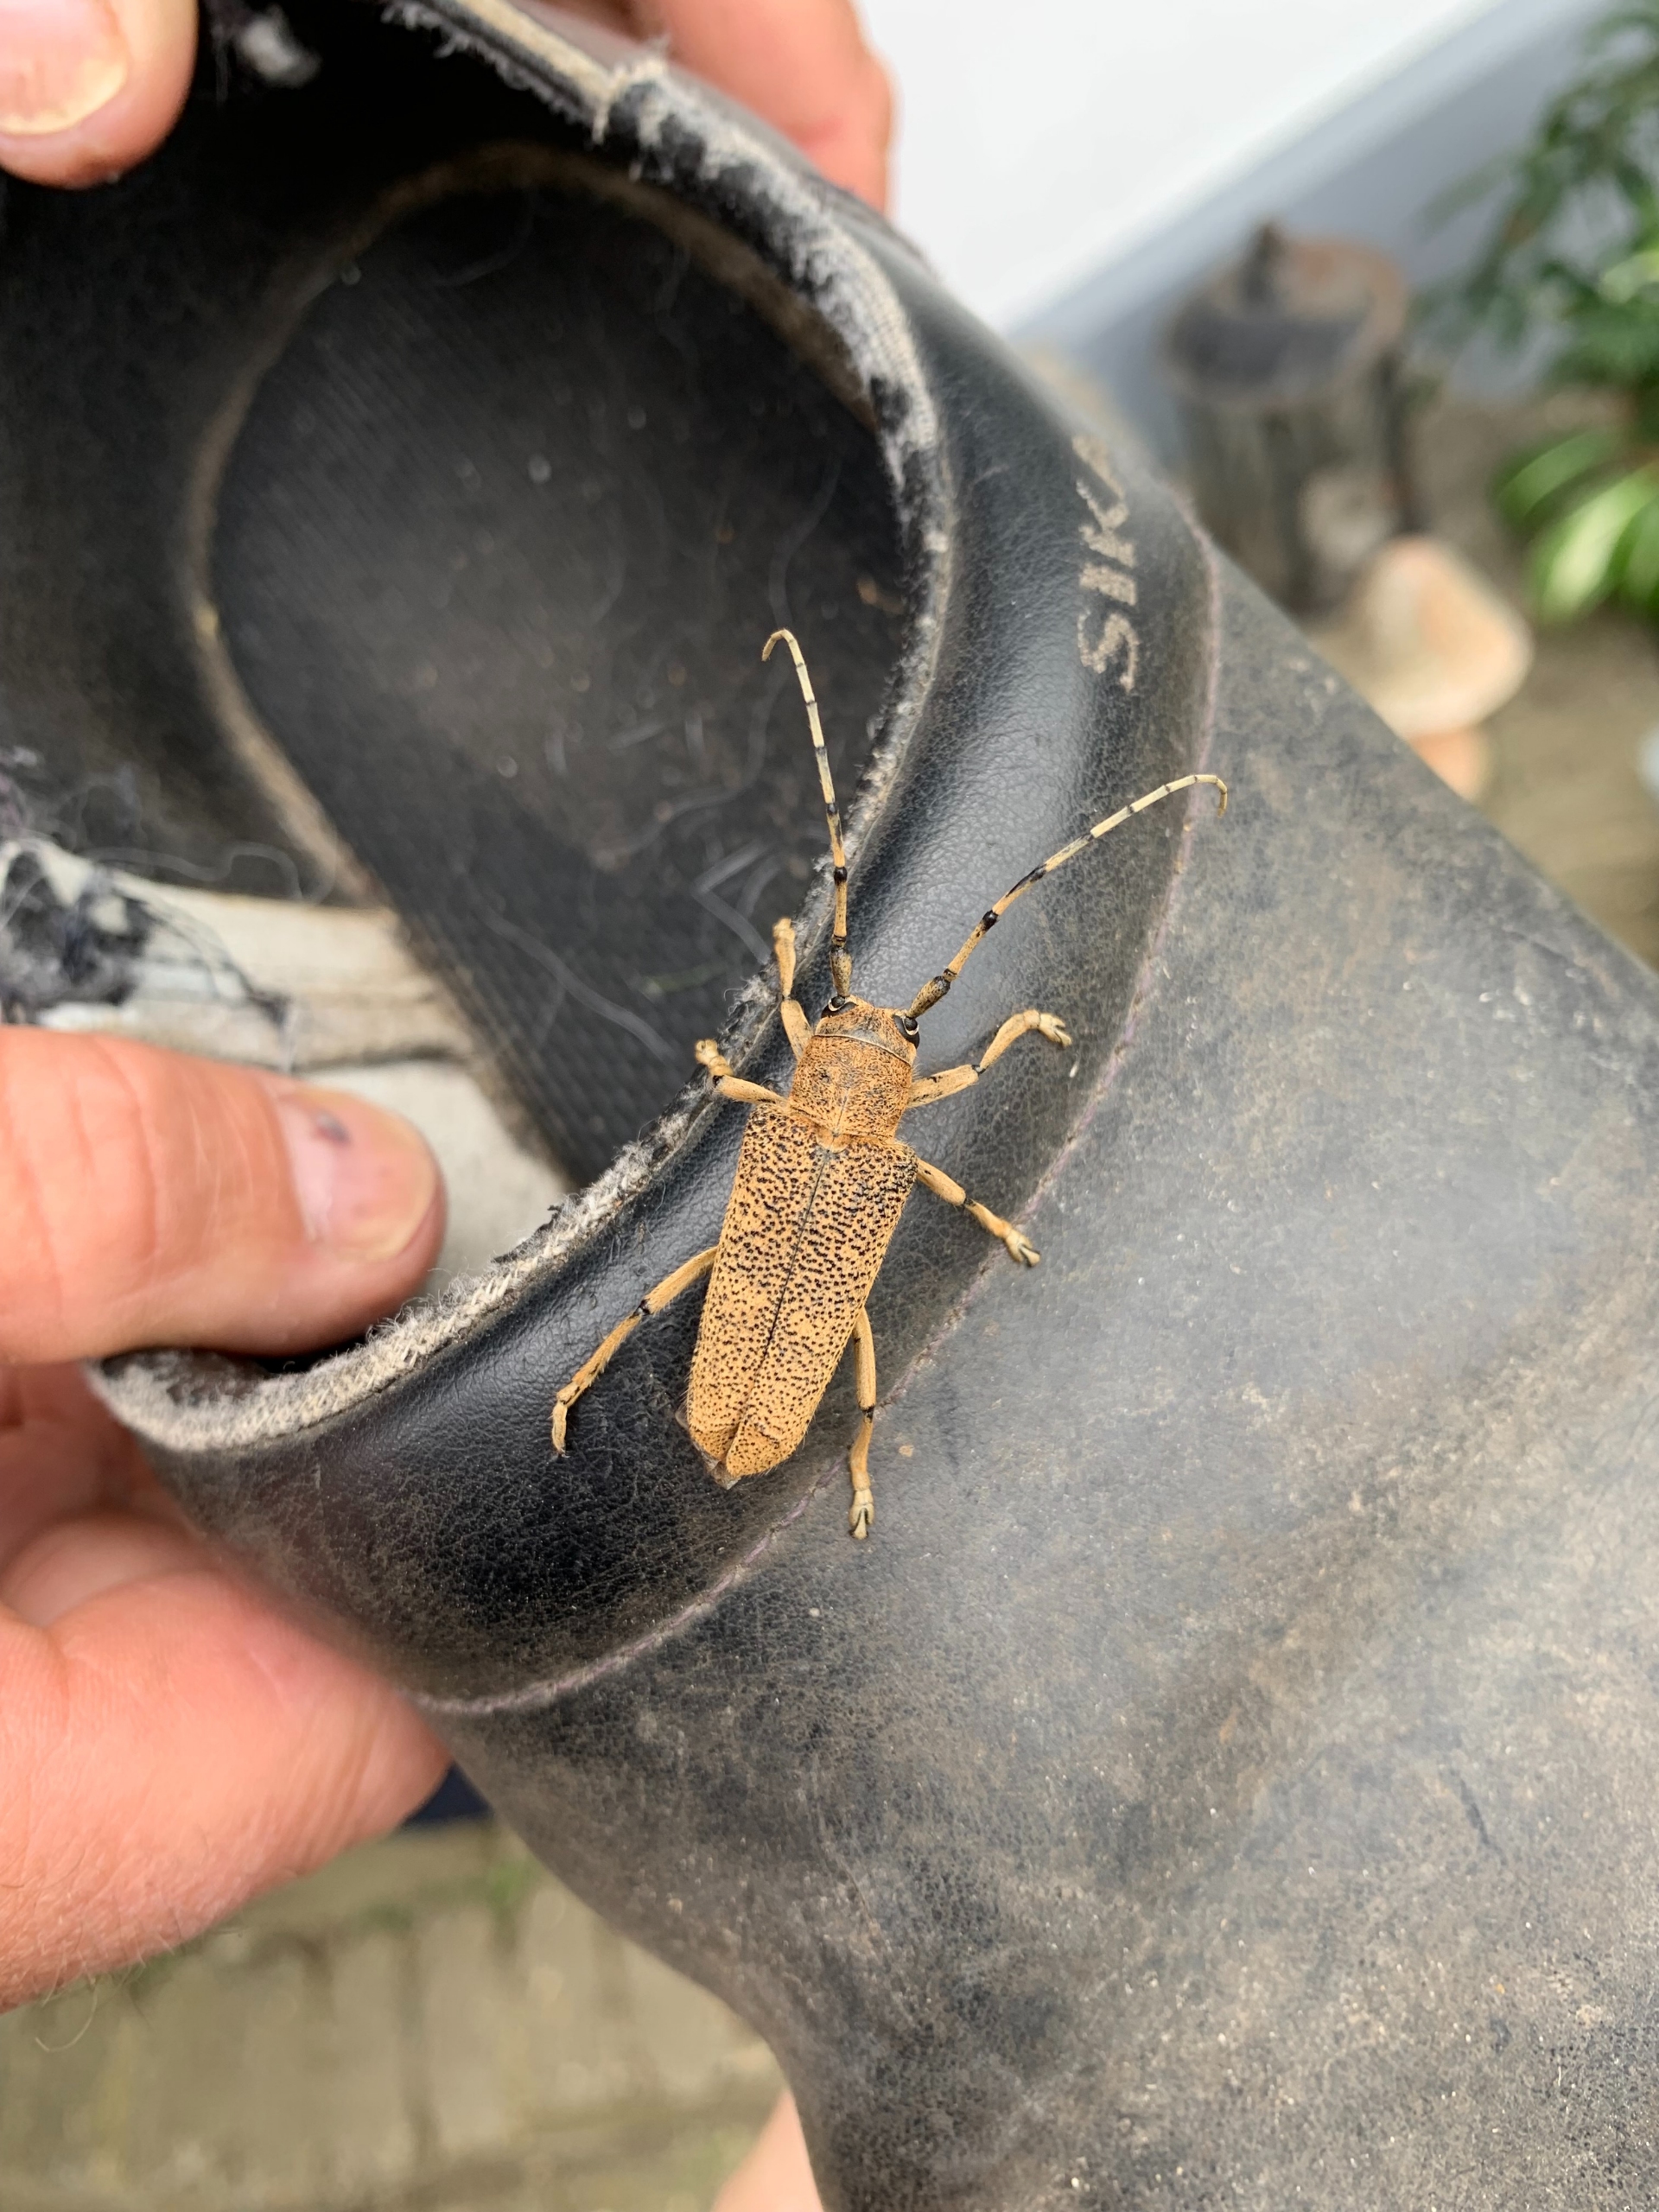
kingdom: Animalia
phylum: Arthropoda
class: Insecta
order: Coleoptera
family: Cerambycidae
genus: Saperda
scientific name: Saperda carcharias
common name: Poppelbuk
